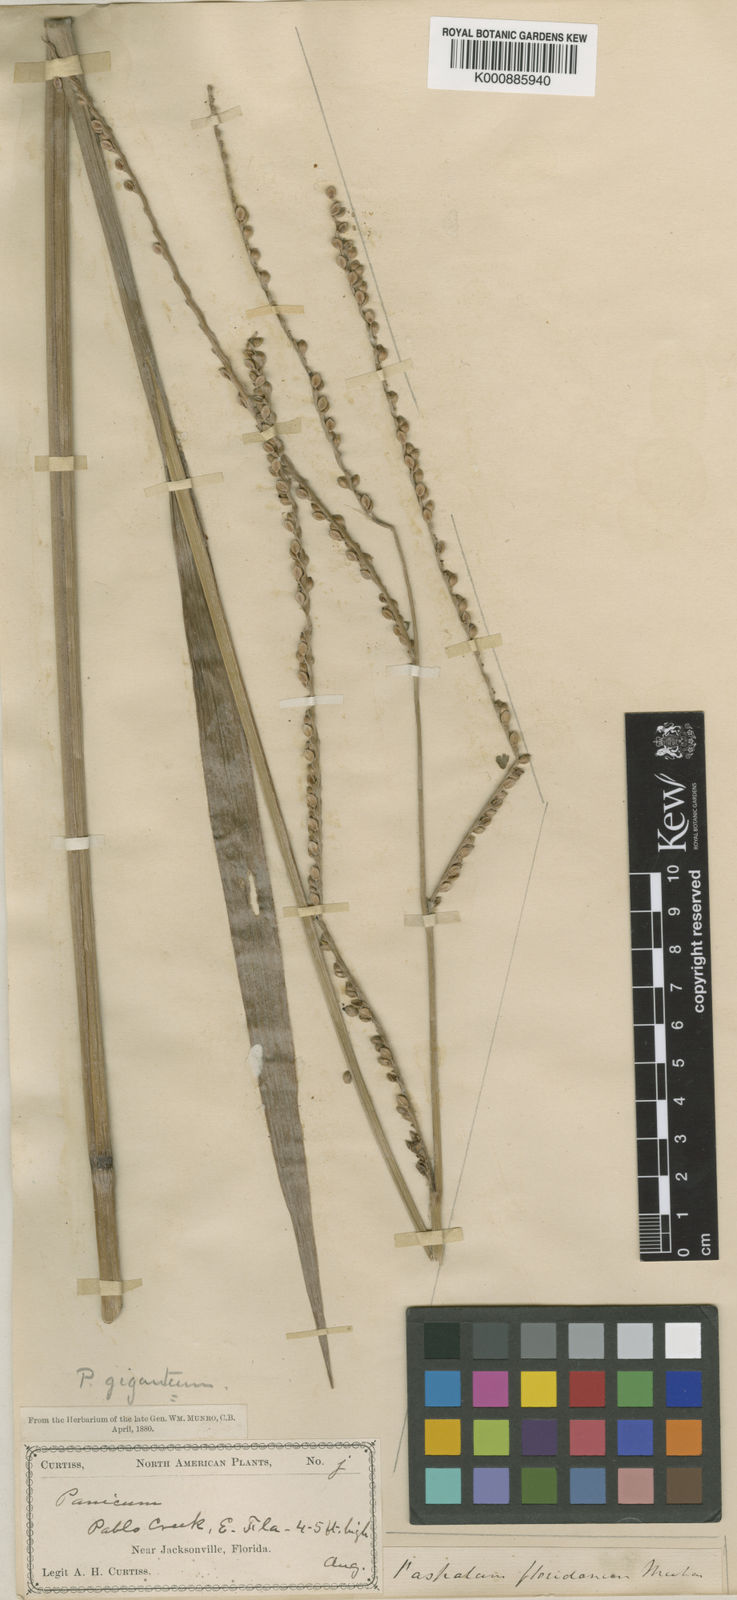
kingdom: Plantae
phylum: Tracheophyta
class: Liliopsida
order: Poales
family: Poaceae
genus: Paspalum
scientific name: Paspalum floridanum
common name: Florida paspalum
